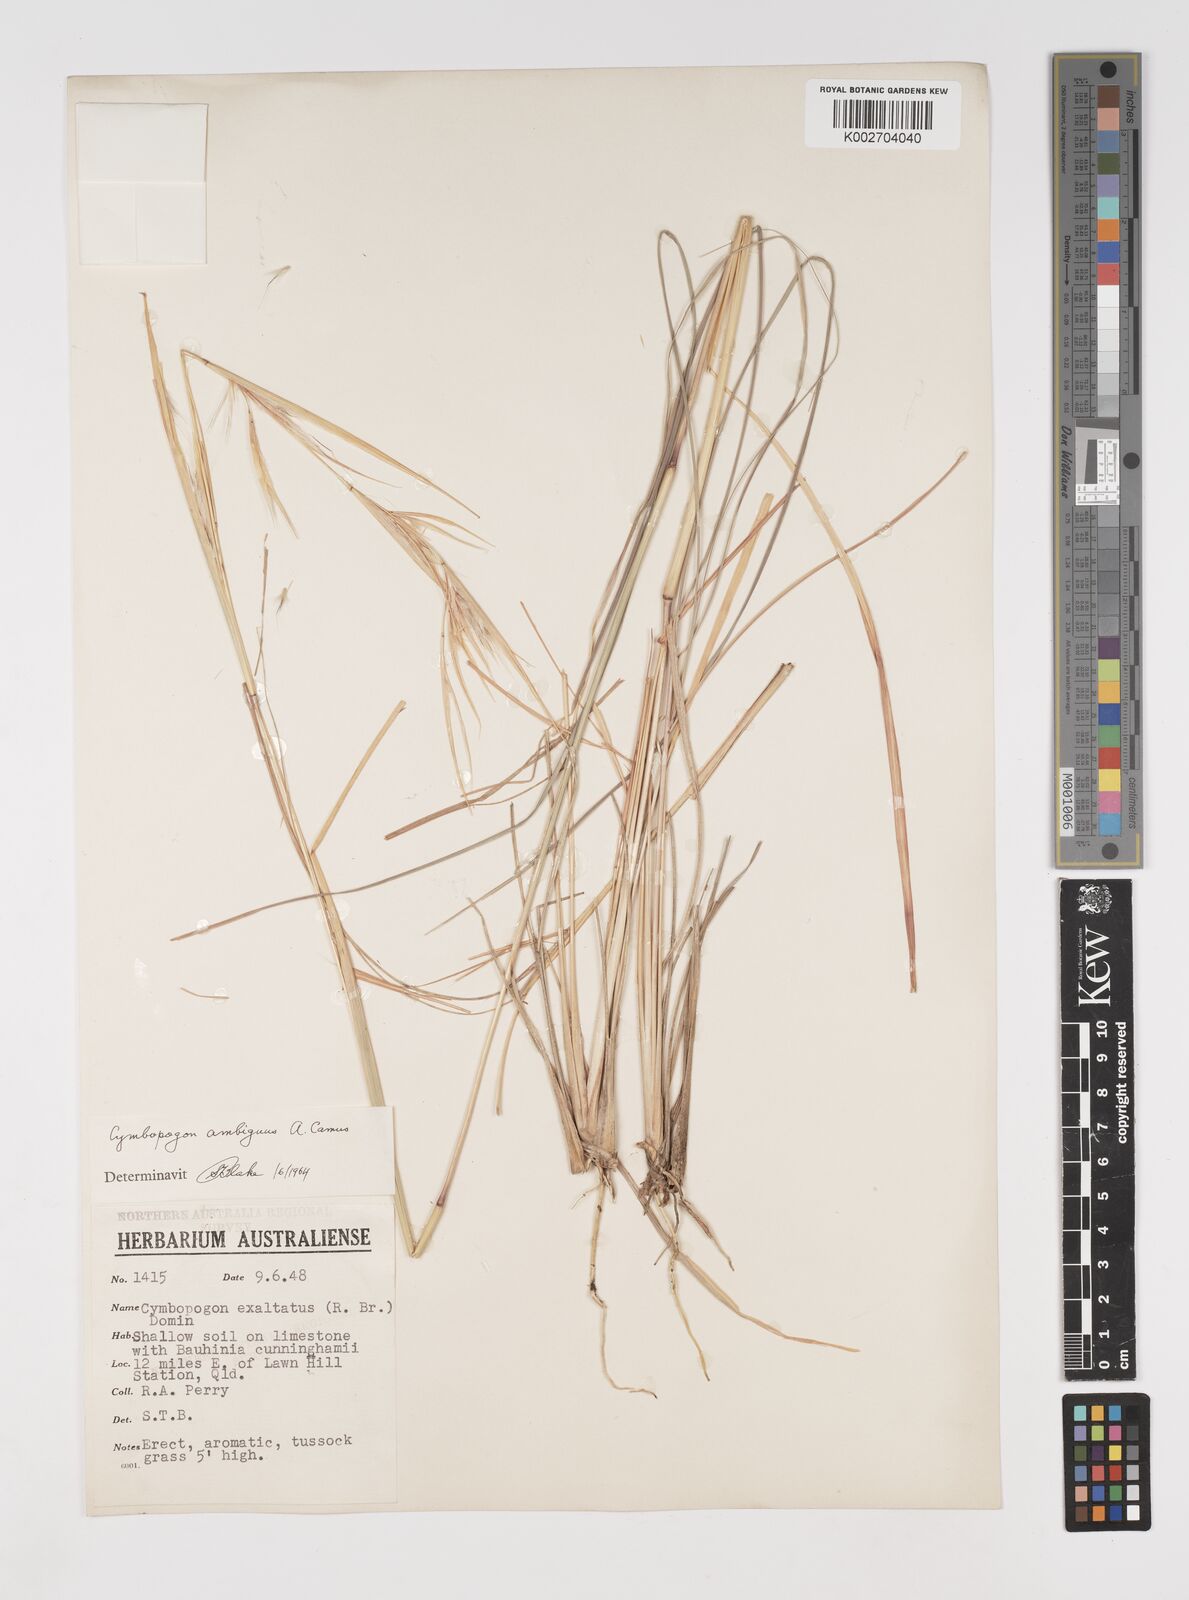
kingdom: Plantae
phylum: Tracheophyta
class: Liliopsida
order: Poales
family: Poaceae
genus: Cymbopogon
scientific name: Cymbopogon ambiguus
